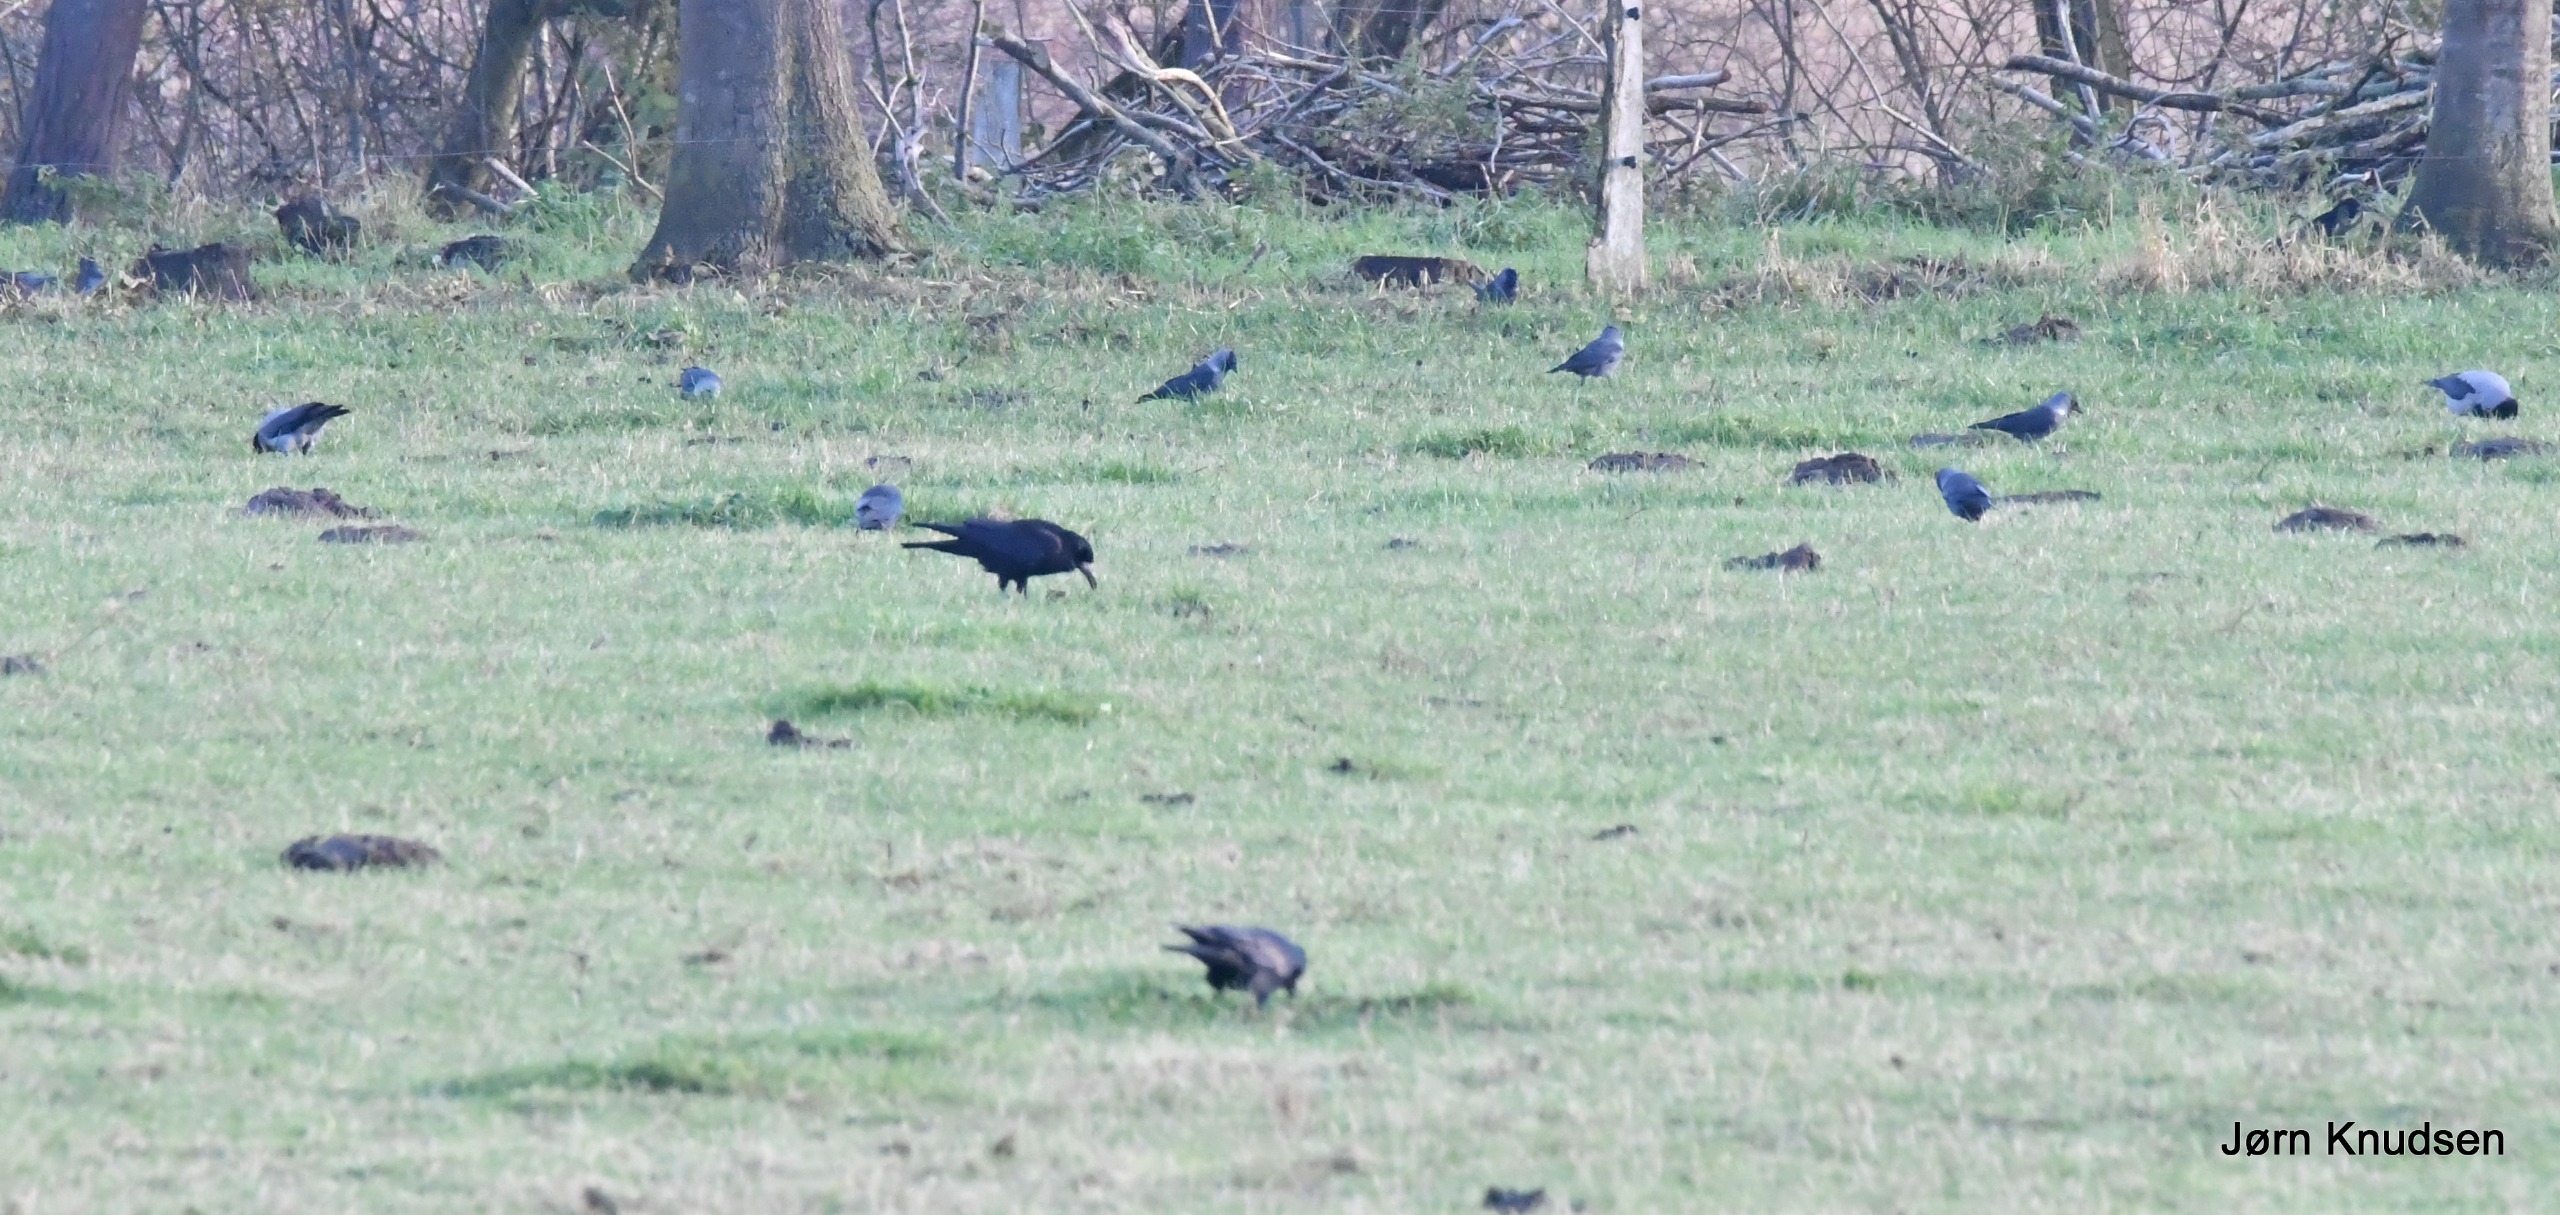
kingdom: Animalia
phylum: Chordata
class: Aves
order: Passeriformes
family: Corvidae
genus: Coloeus
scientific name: Coloeus monedula
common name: Allike
